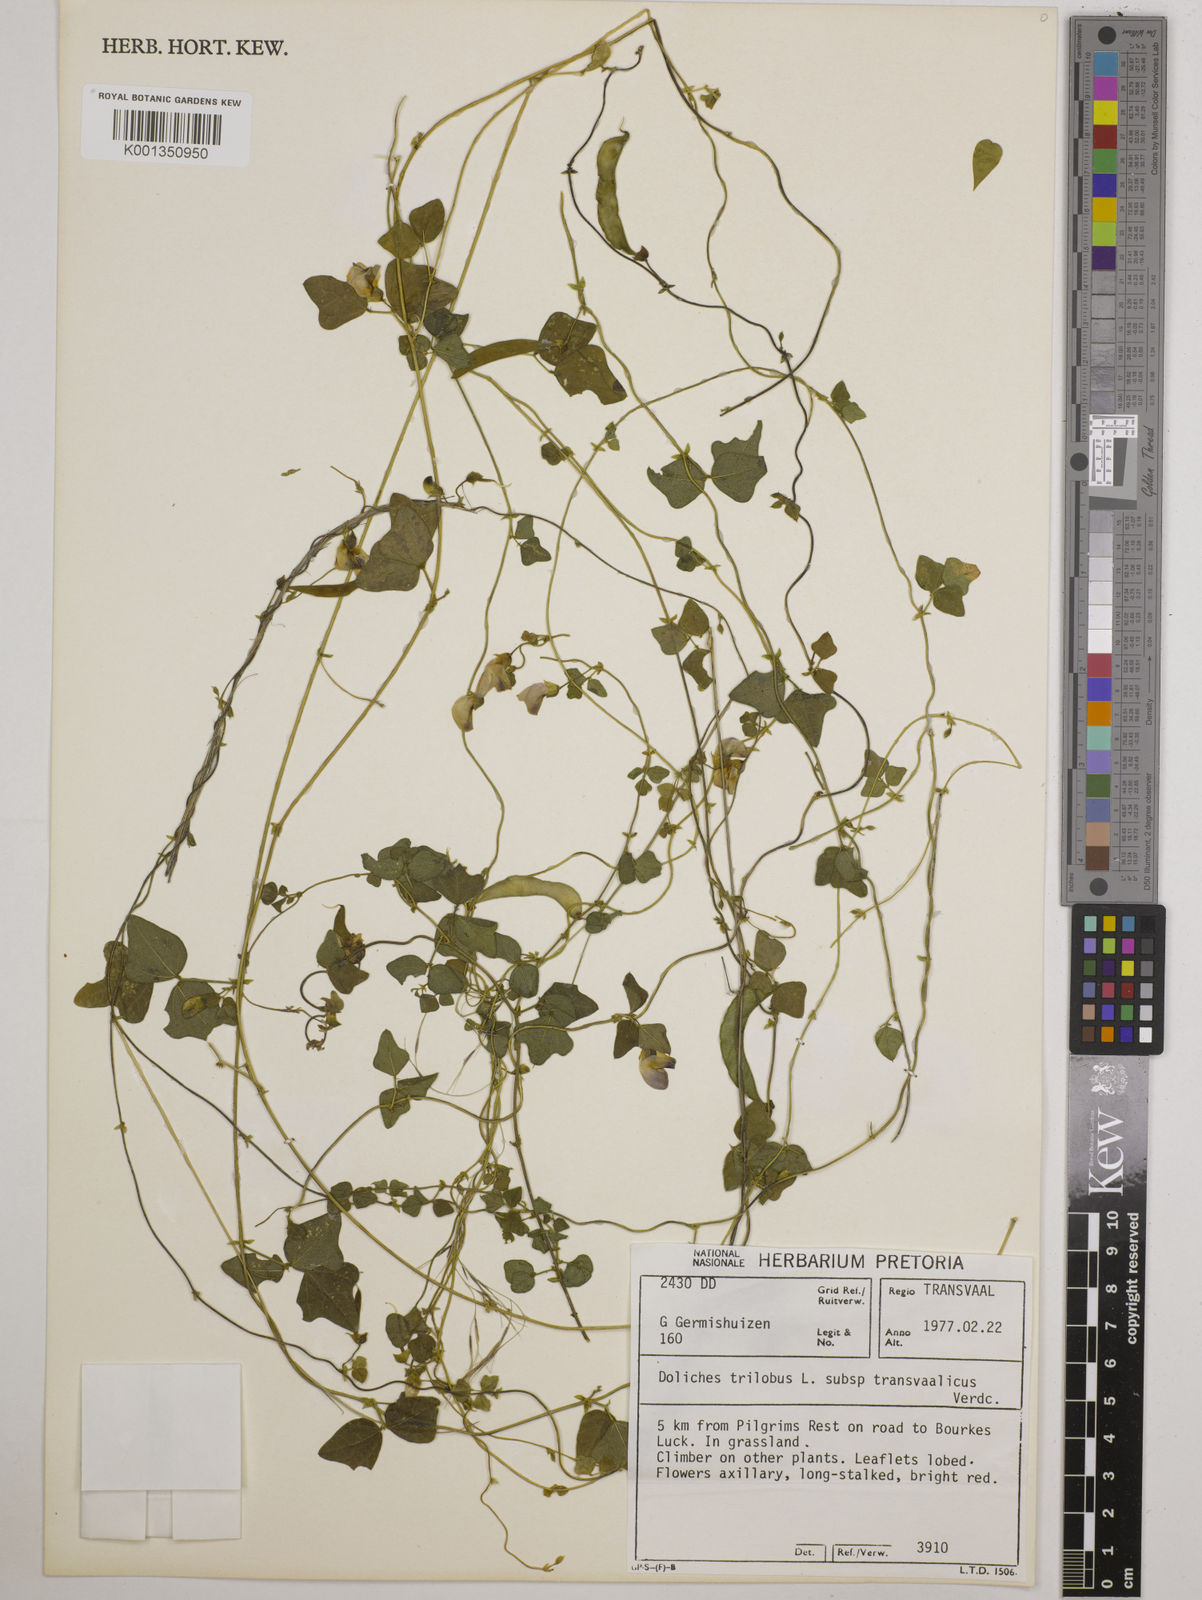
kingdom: Plantae
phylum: Tracheophyta
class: Magnoliopsida
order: Fabales
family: Fabaceae
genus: Dolichos
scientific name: Dolichos
